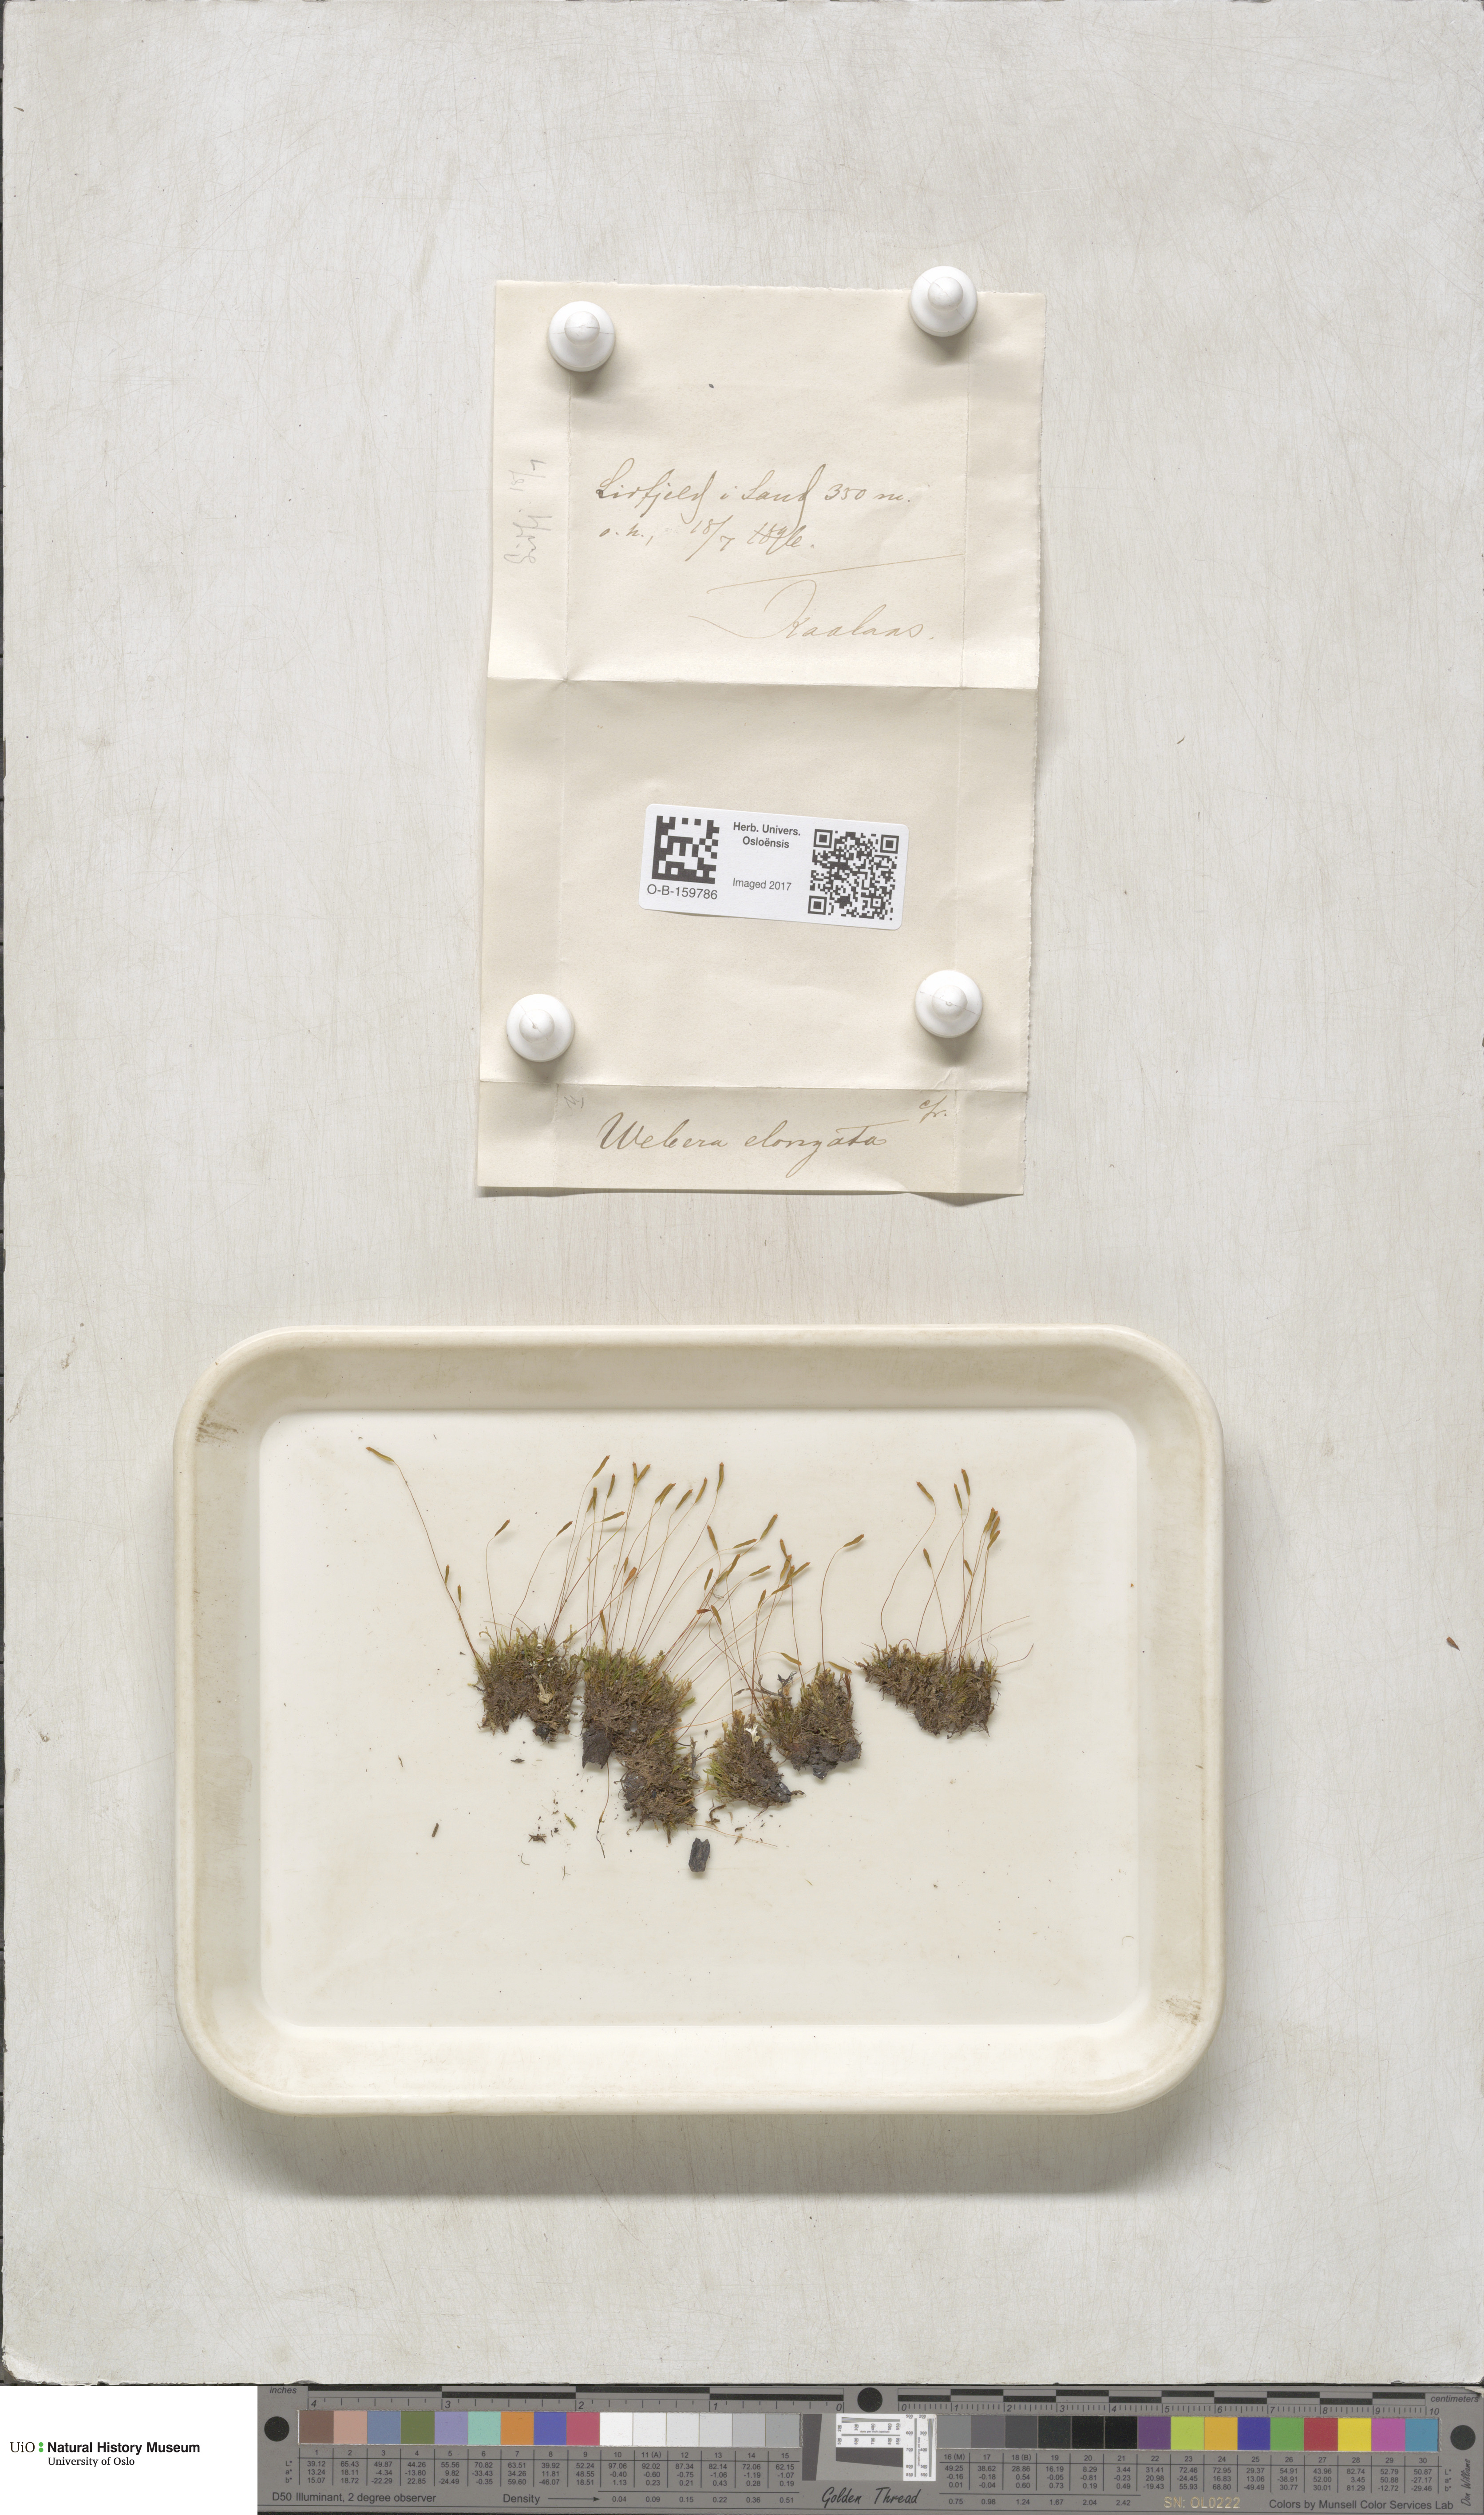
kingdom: Plantae
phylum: Bryophyta
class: Bryopsida
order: Bryales
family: Mniaceae
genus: Pohlia
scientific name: Pohlia elongata
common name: Long-fruited thread-moss
